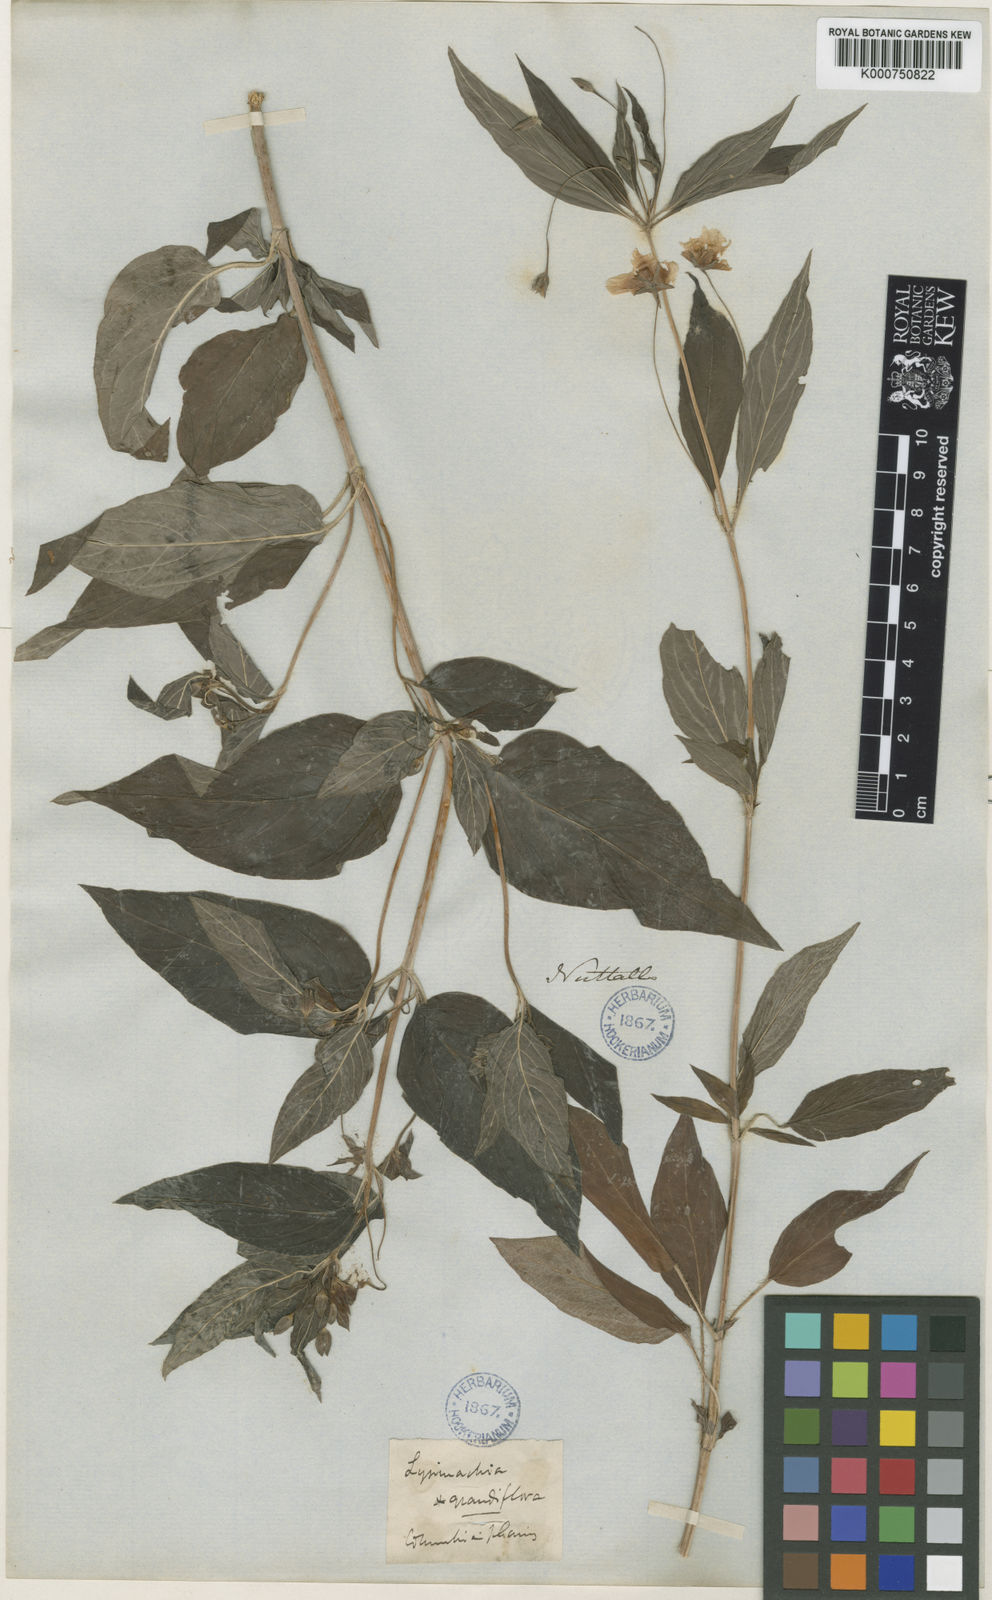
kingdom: Plantae
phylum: Tracheophyta
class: Magnoliopsida
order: Ericales
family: Primulaceae
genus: Lysimachia
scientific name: Lysimachia ciliata
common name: Fringed loosestrife
